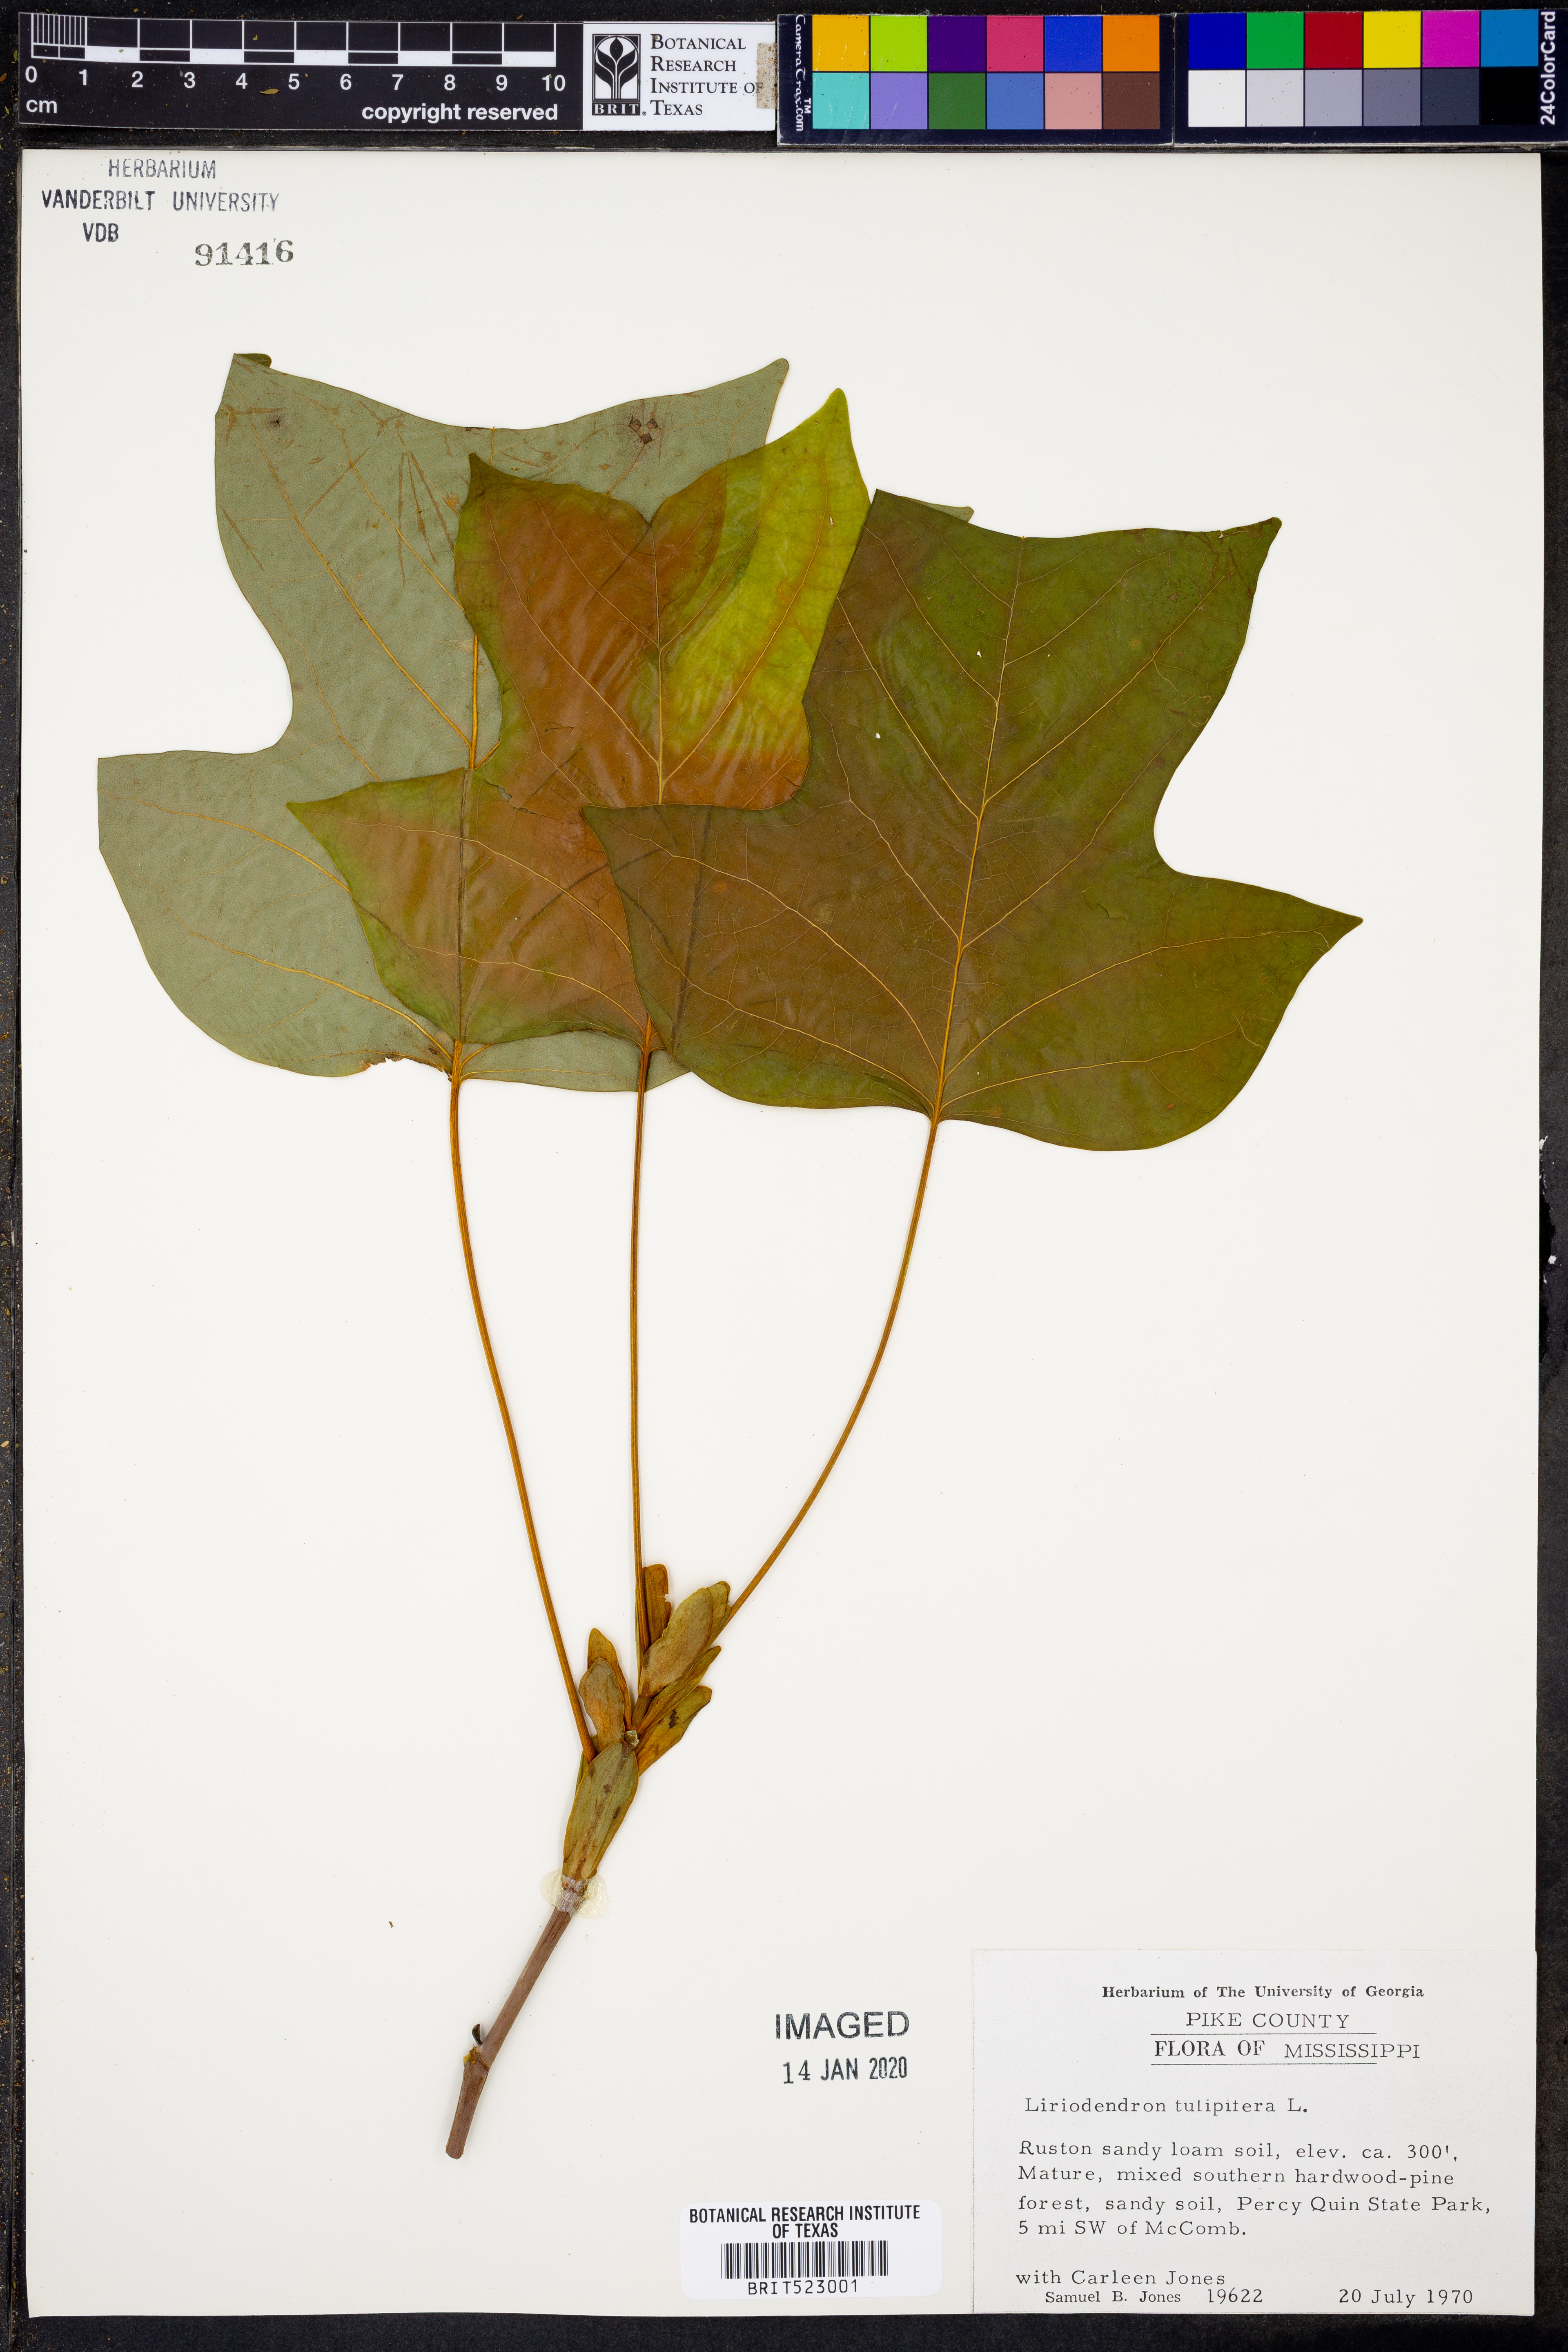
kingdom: Plantae
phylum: Tracheophyta
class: Magnoliopsida
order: Magnoliales
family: Magnoliaceae
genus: Liriodendron
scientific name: Liriodendron tulipifera
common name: Tulip tree
